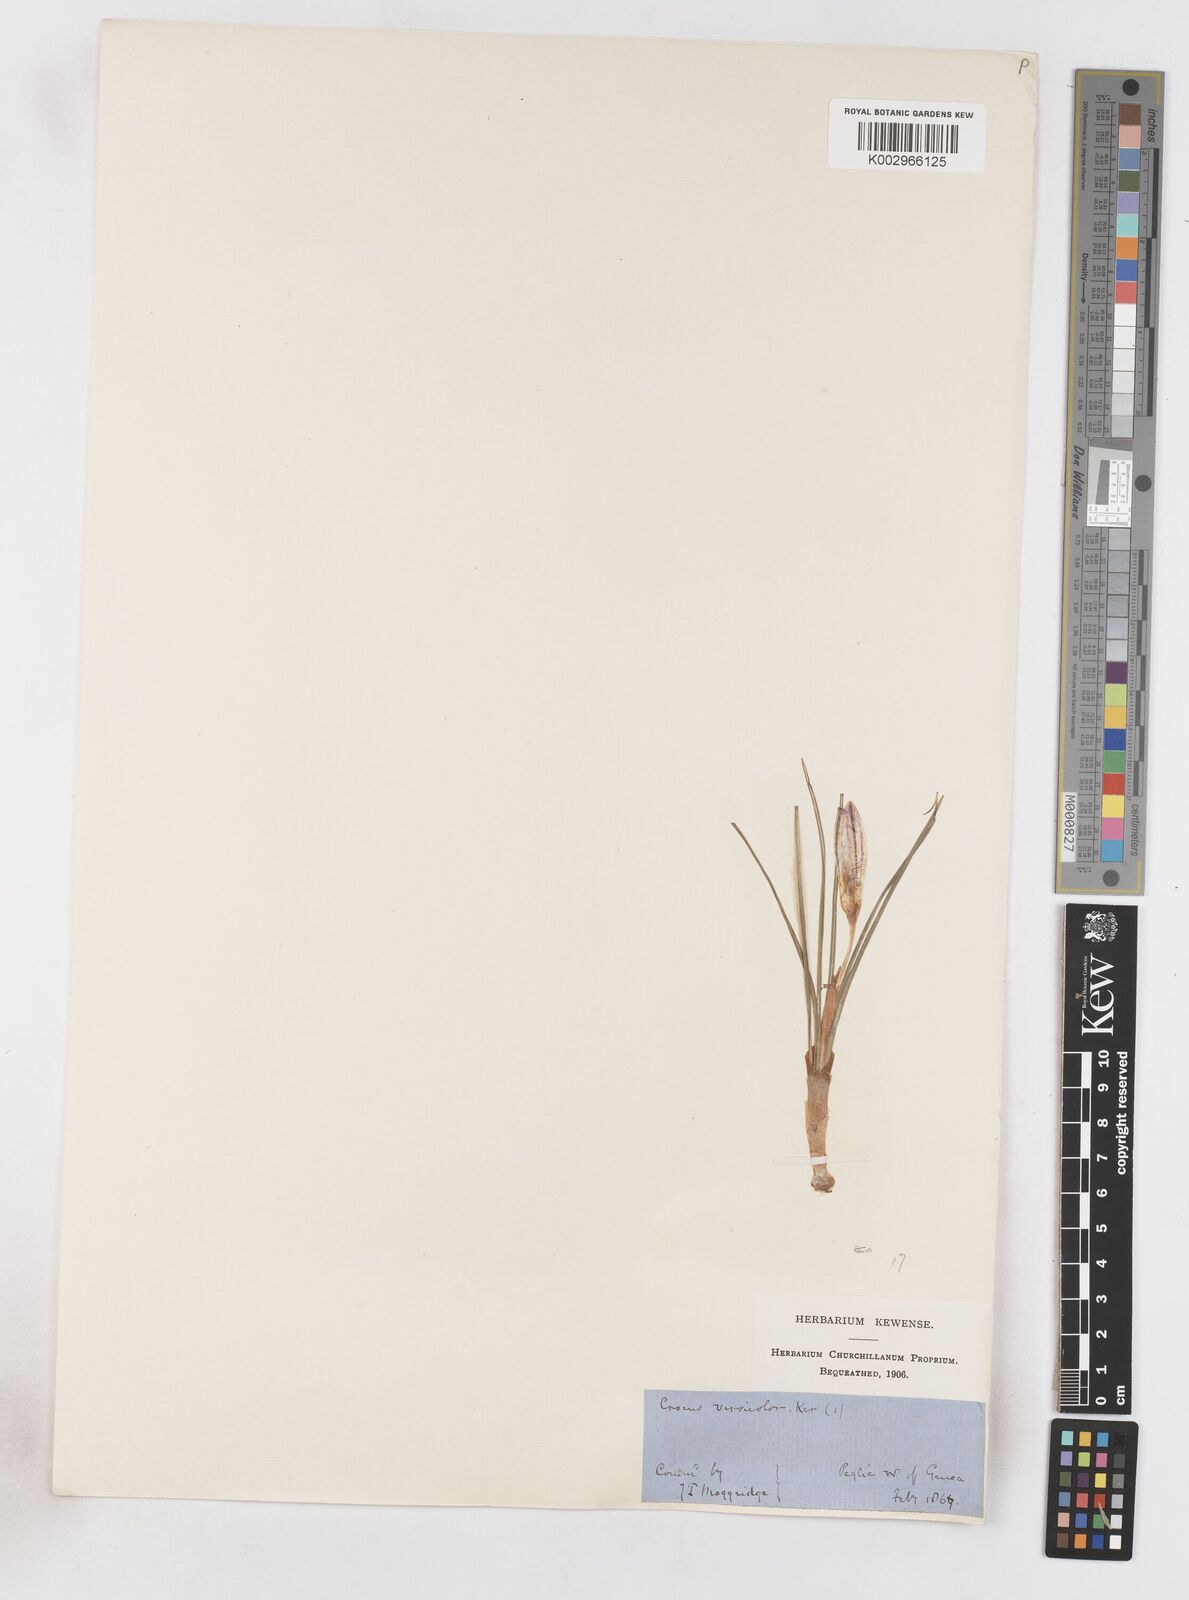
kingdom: Plantae
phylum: Tracheophyta
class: Liliopsida
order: Asparagales
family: Iridaceae
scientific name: Iridaceae
